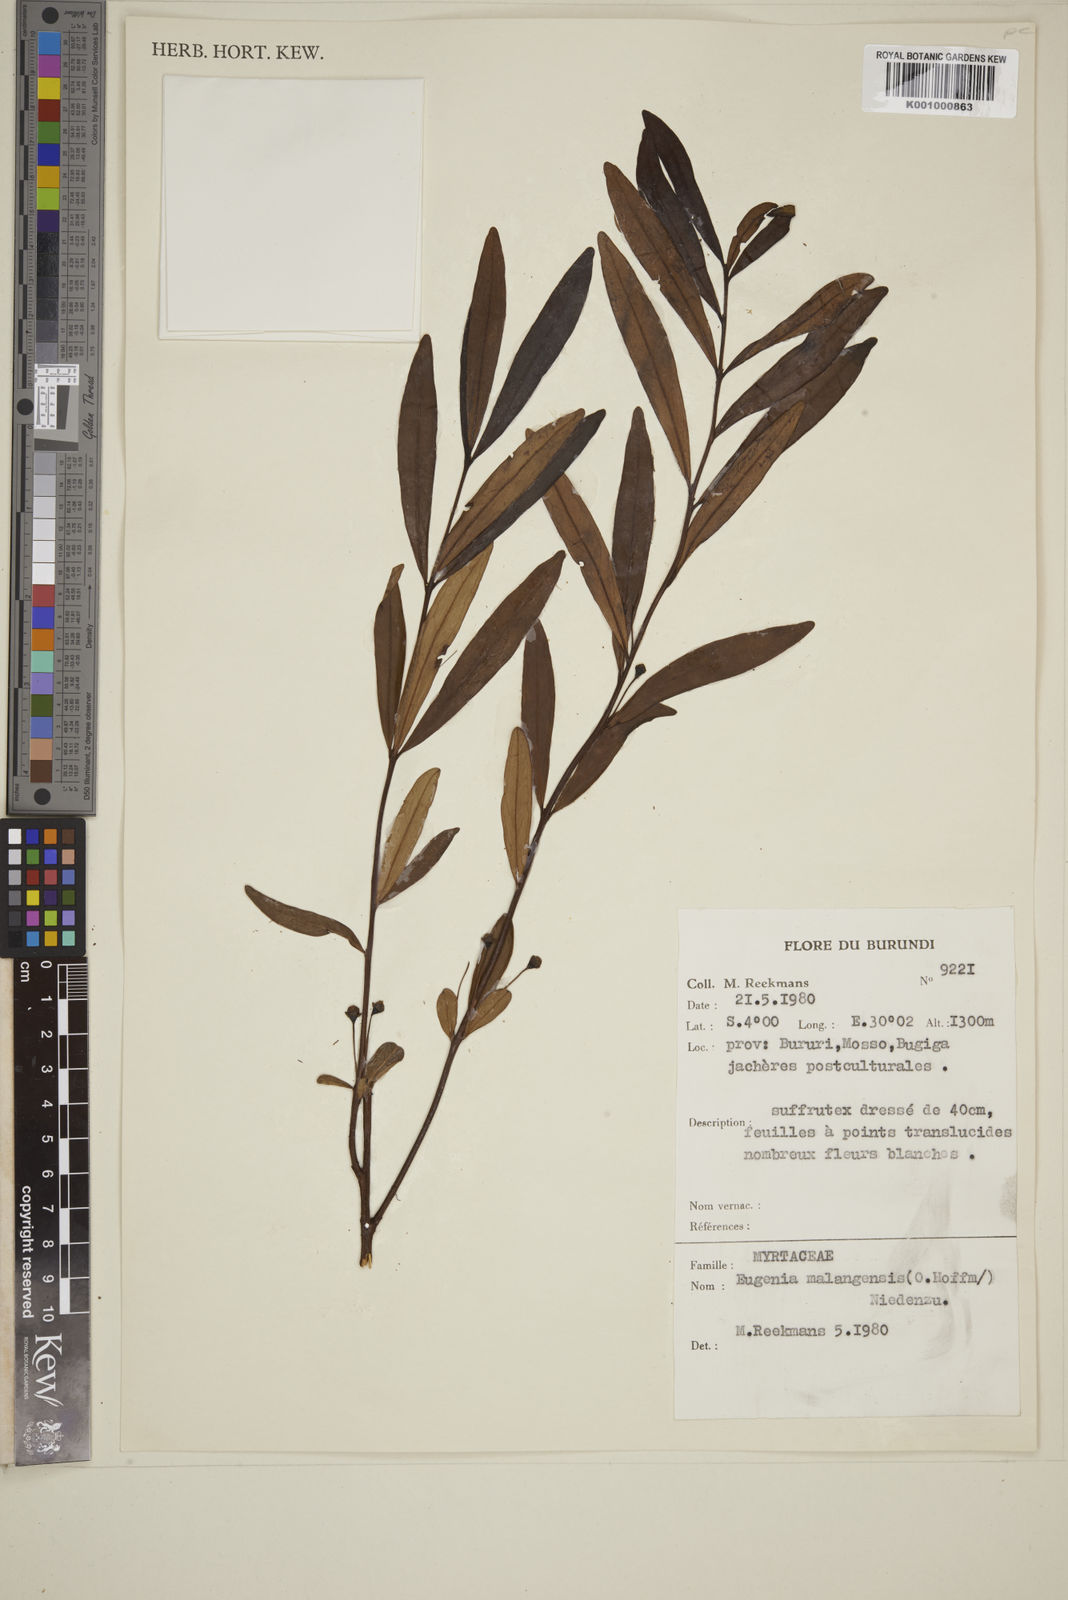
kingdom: Plantae
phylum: Tracheophyta
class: Magnoliopsida
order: Myrtales
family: Myrtaceae
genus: Eugenia
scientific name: Eugenia malangensis
